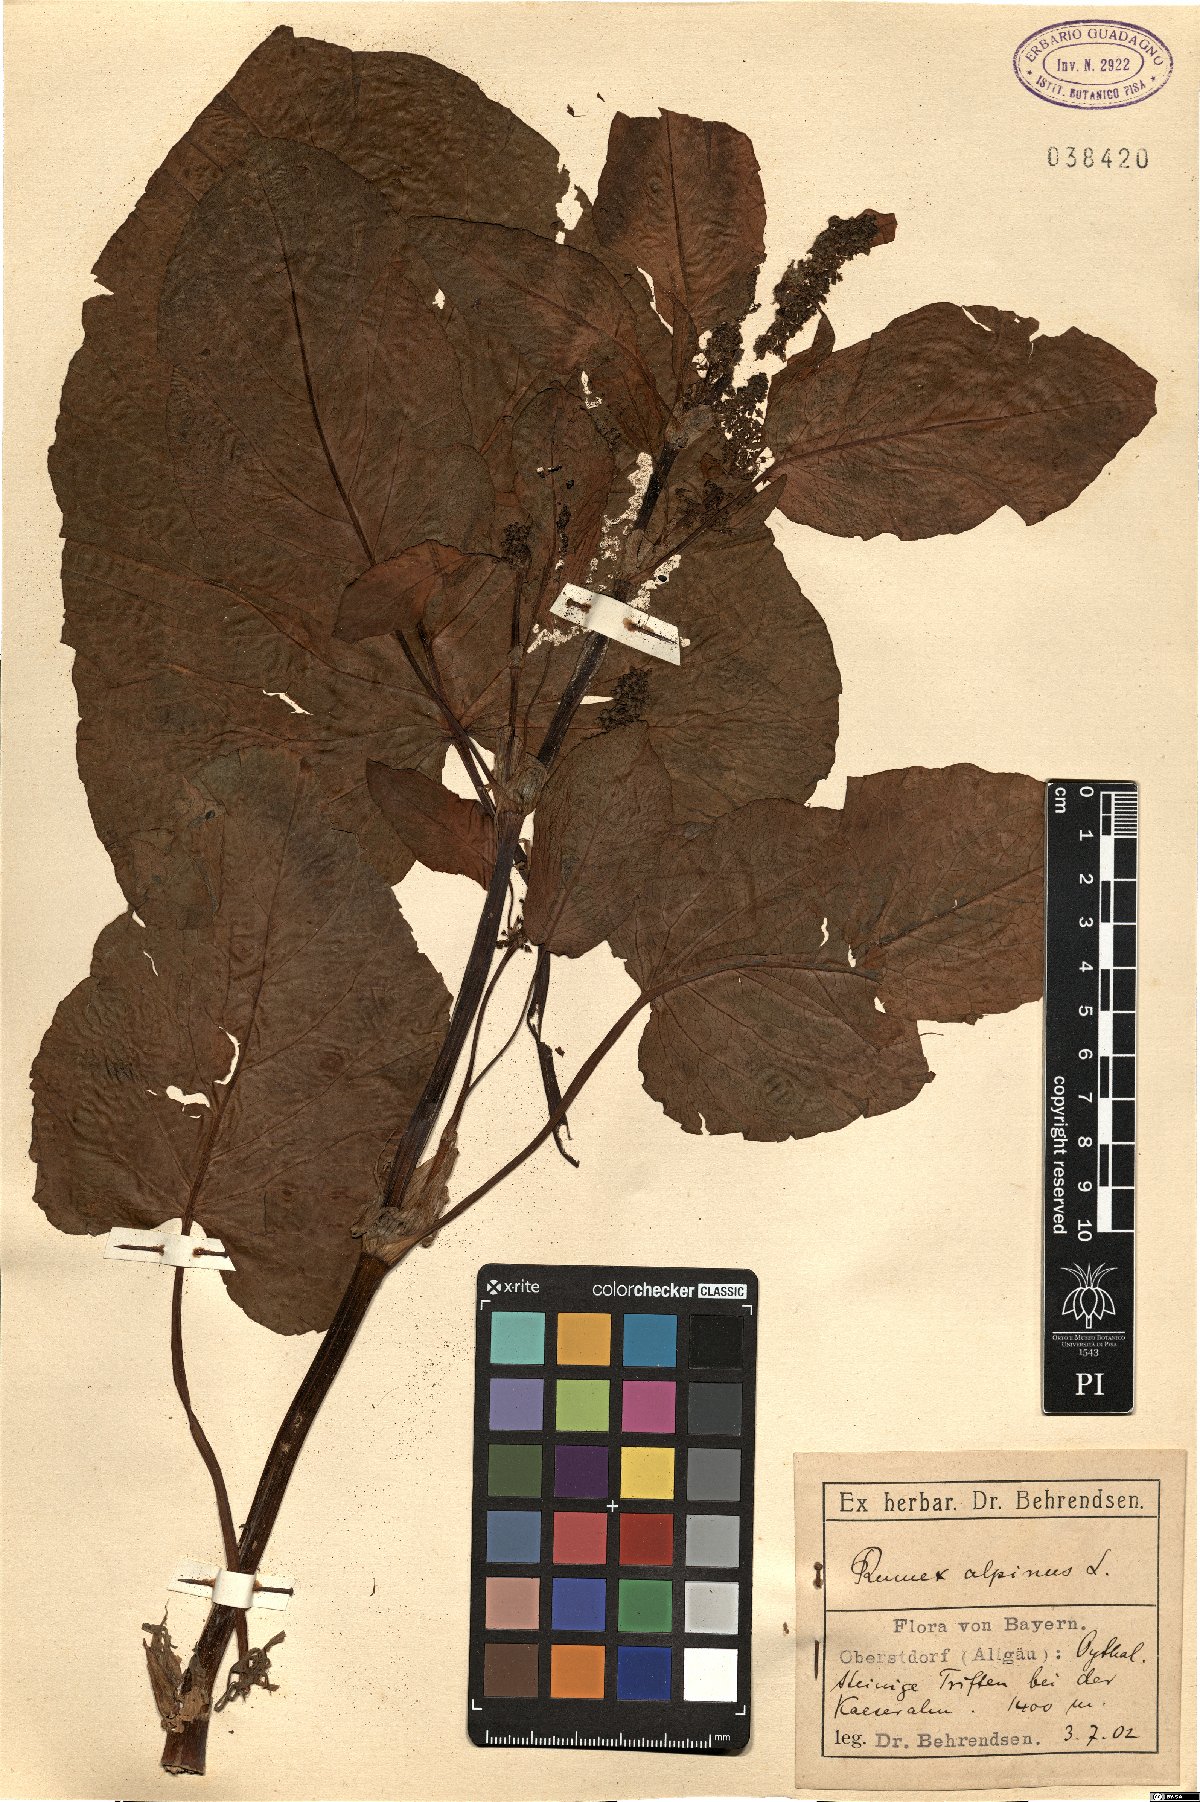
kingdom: Plantae
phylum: Tracheophyta
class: Magnoliopsida
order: Caryophyllales
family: Polygonaceae
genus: Rumex
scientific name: Rumex alpinus
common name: Alpine dock
